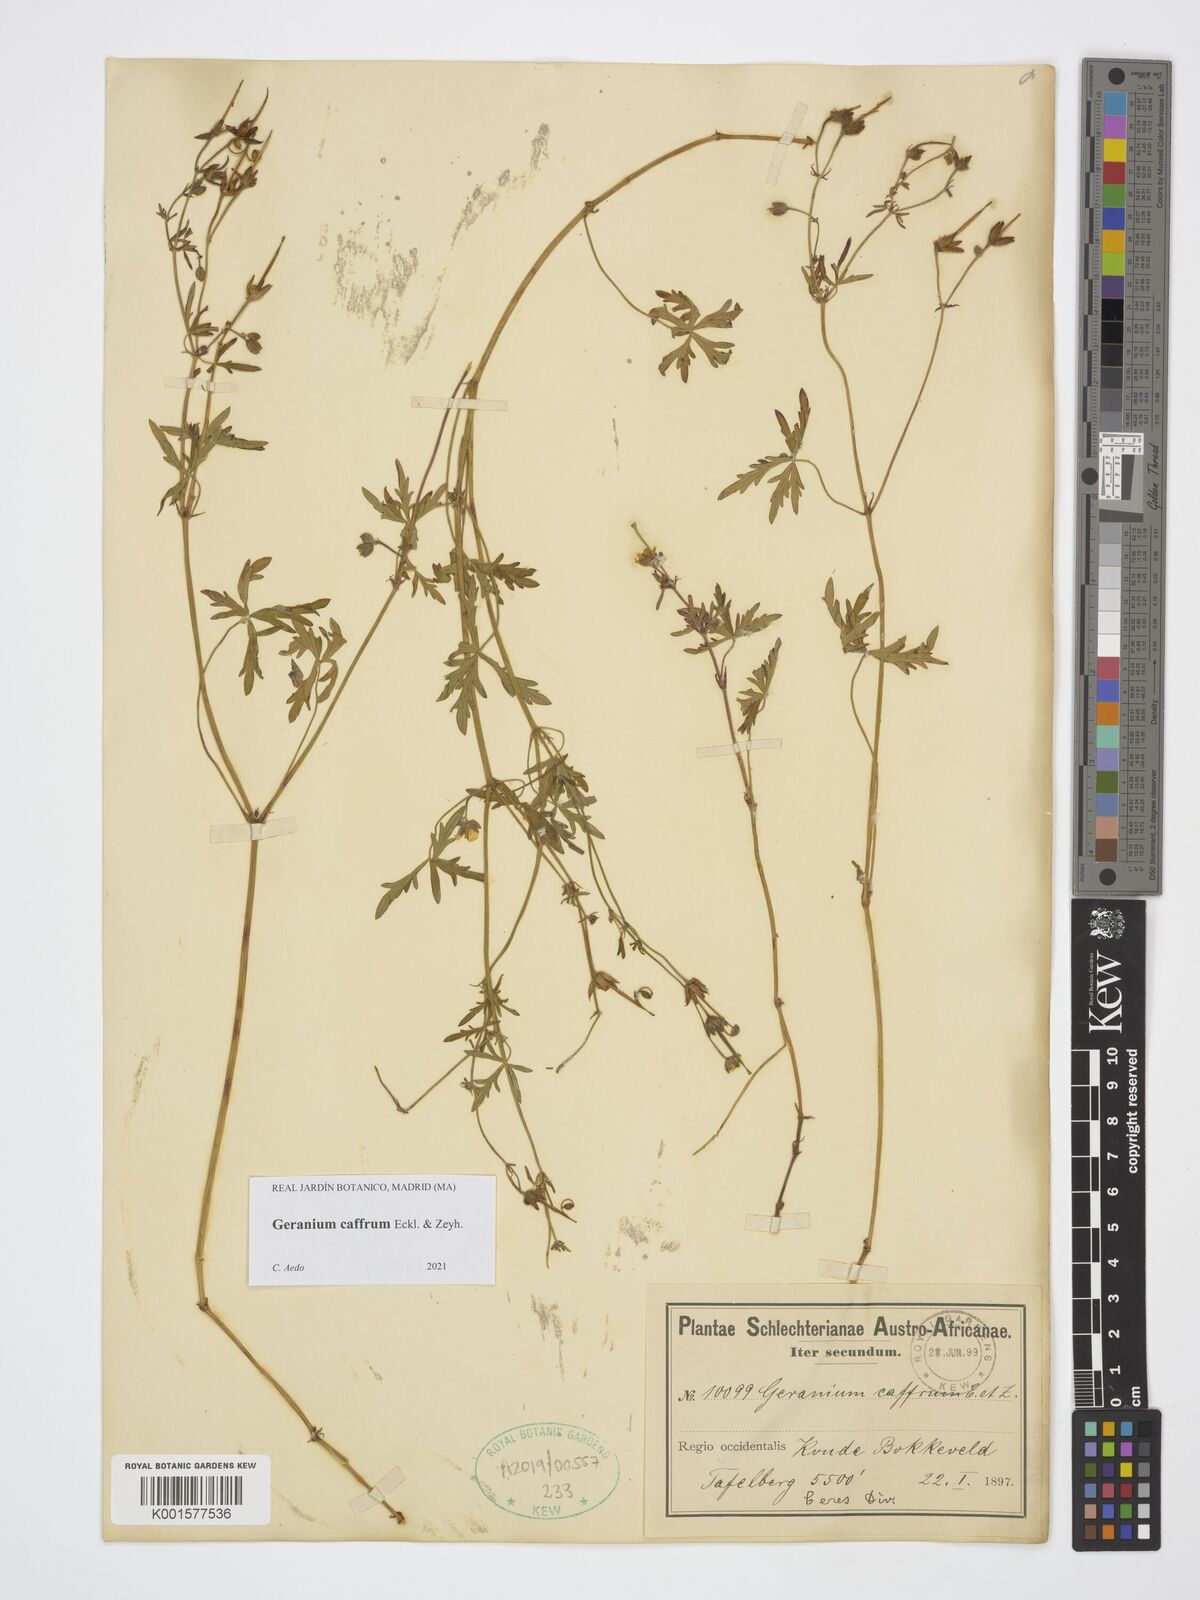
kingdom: Plantae
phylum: Tracheophyta
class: Magnoliopsida
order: Geraniales
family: Geraniaceae
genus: Geranium
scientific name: Geranium caffrum
